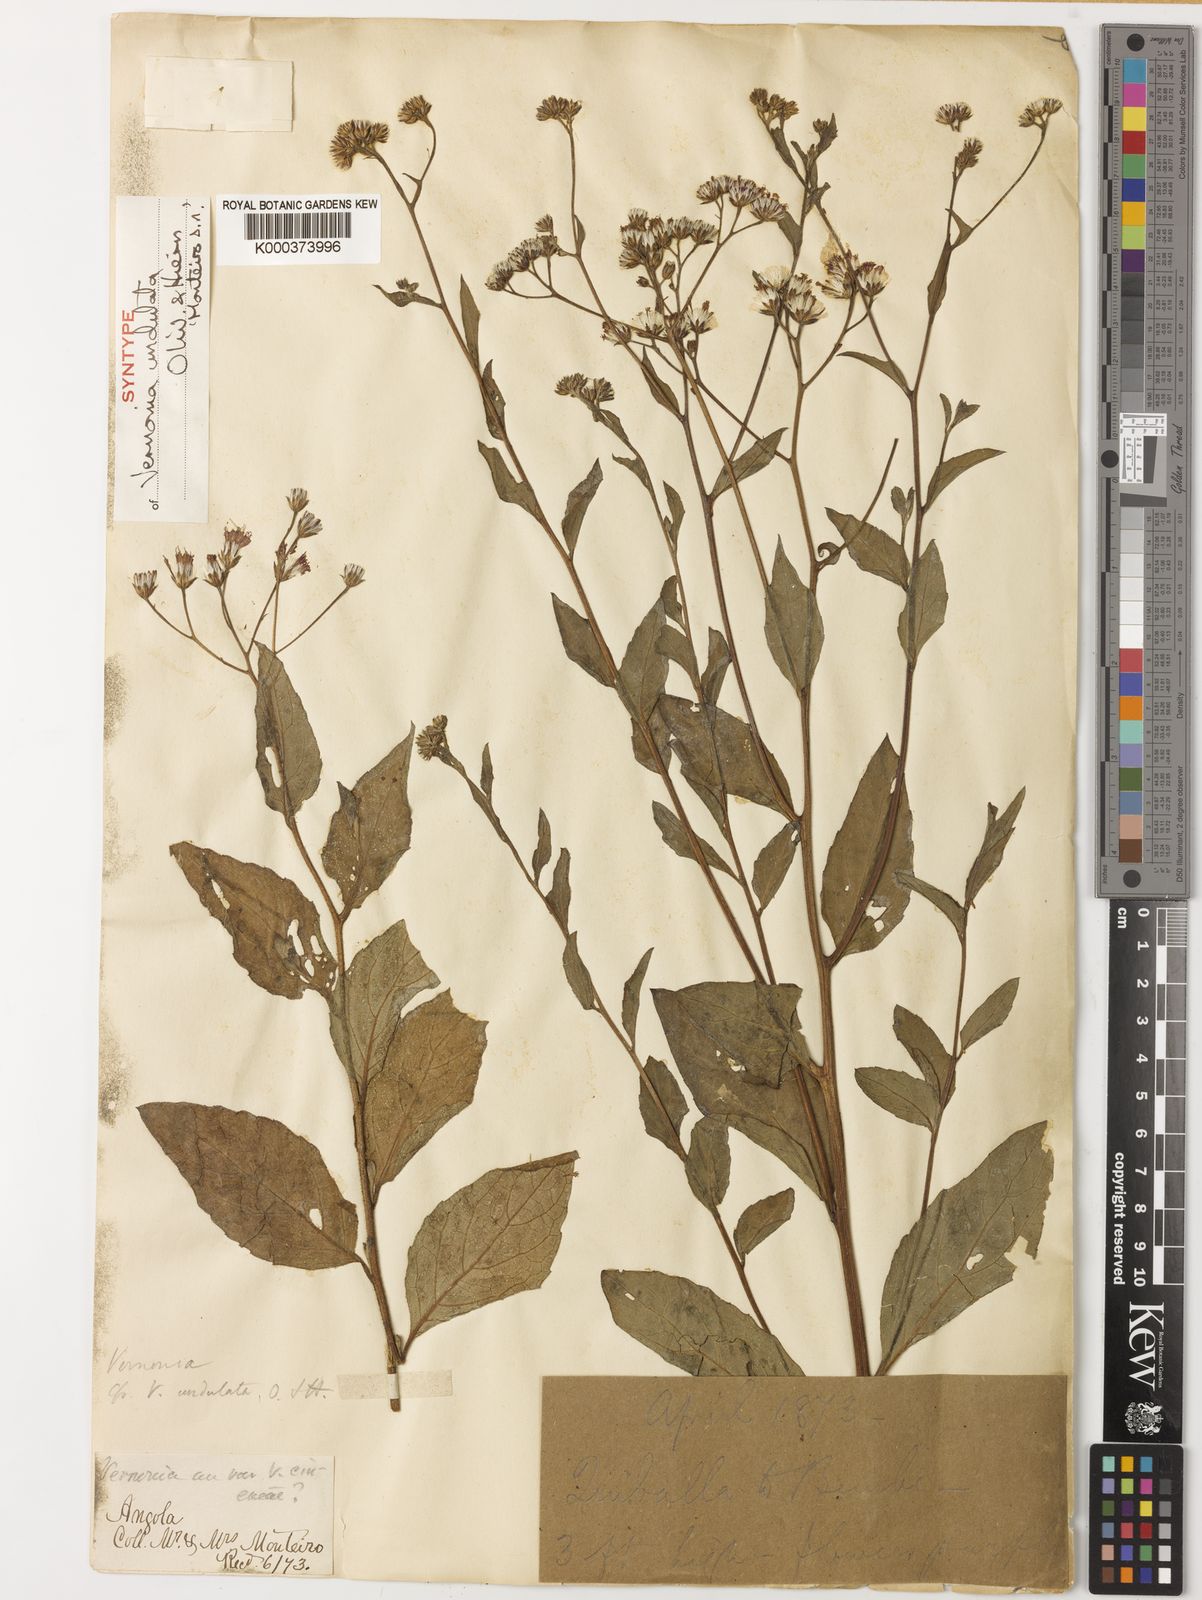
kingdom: Plantae
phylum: Tracheophyta
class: Magnoliopsida
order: Asterales
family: Asteraceae
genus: Vernonia
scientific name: Vernonia golungensis
